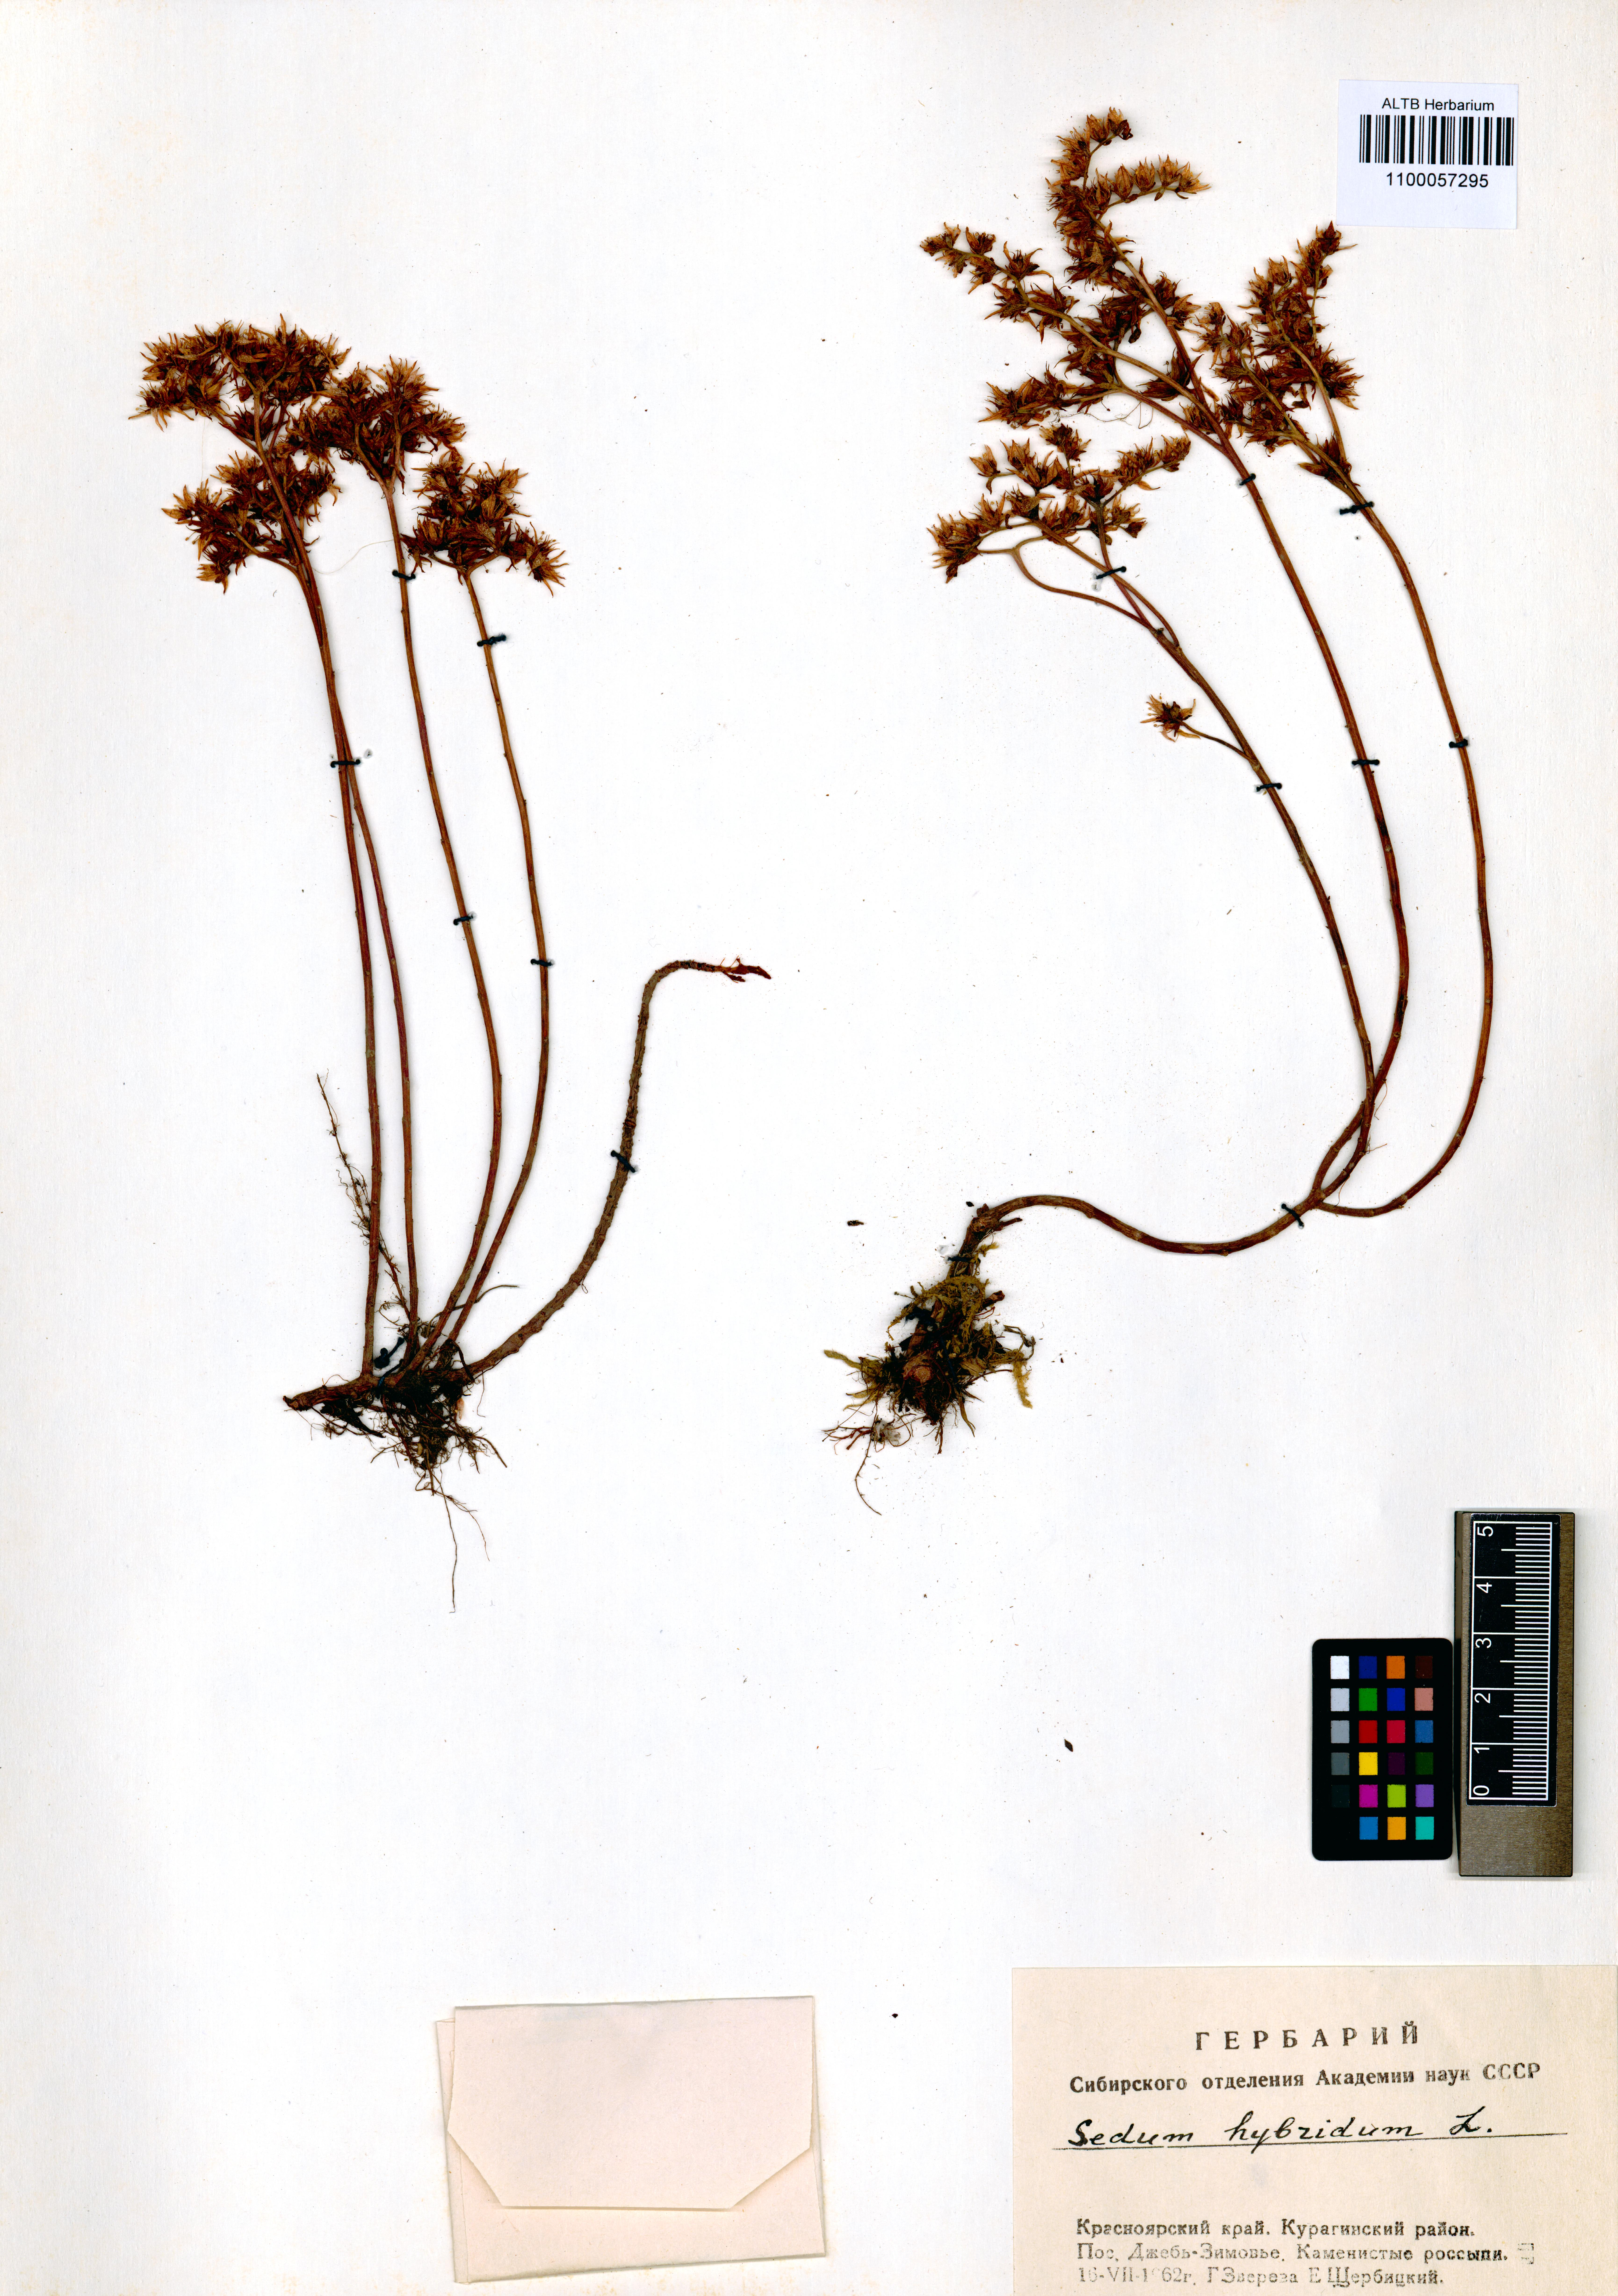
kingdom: Plantae
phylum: Tracheophyta
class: Magnoliopsida
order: Saxifragales
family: Crassulaceae
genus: Phedimus
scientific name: Phedimus hybridus
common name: Hybrid stonecrop
